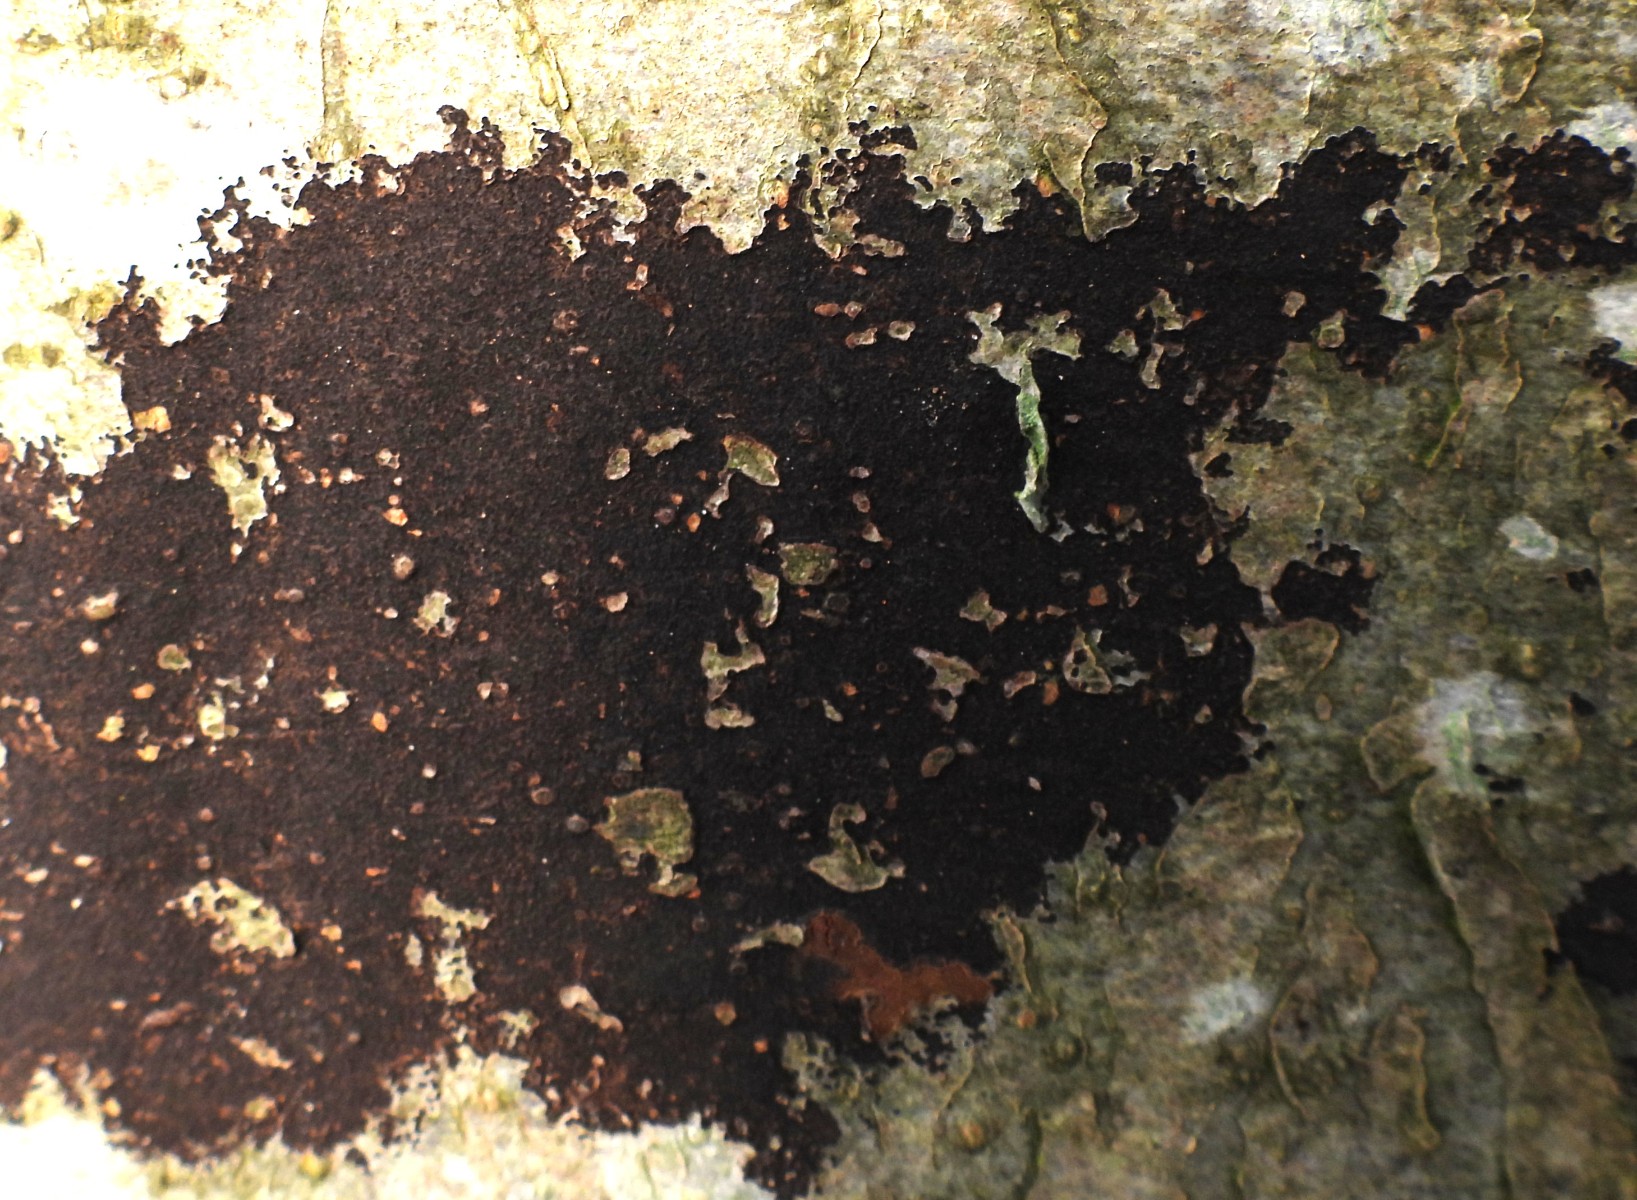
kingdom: Fungi
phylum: Ascomycota
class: Leotiomycetes
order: Rhytismatales
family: Ascodichaenaceae
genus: Ascodichaena
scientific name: Ascodichaena rugosa
